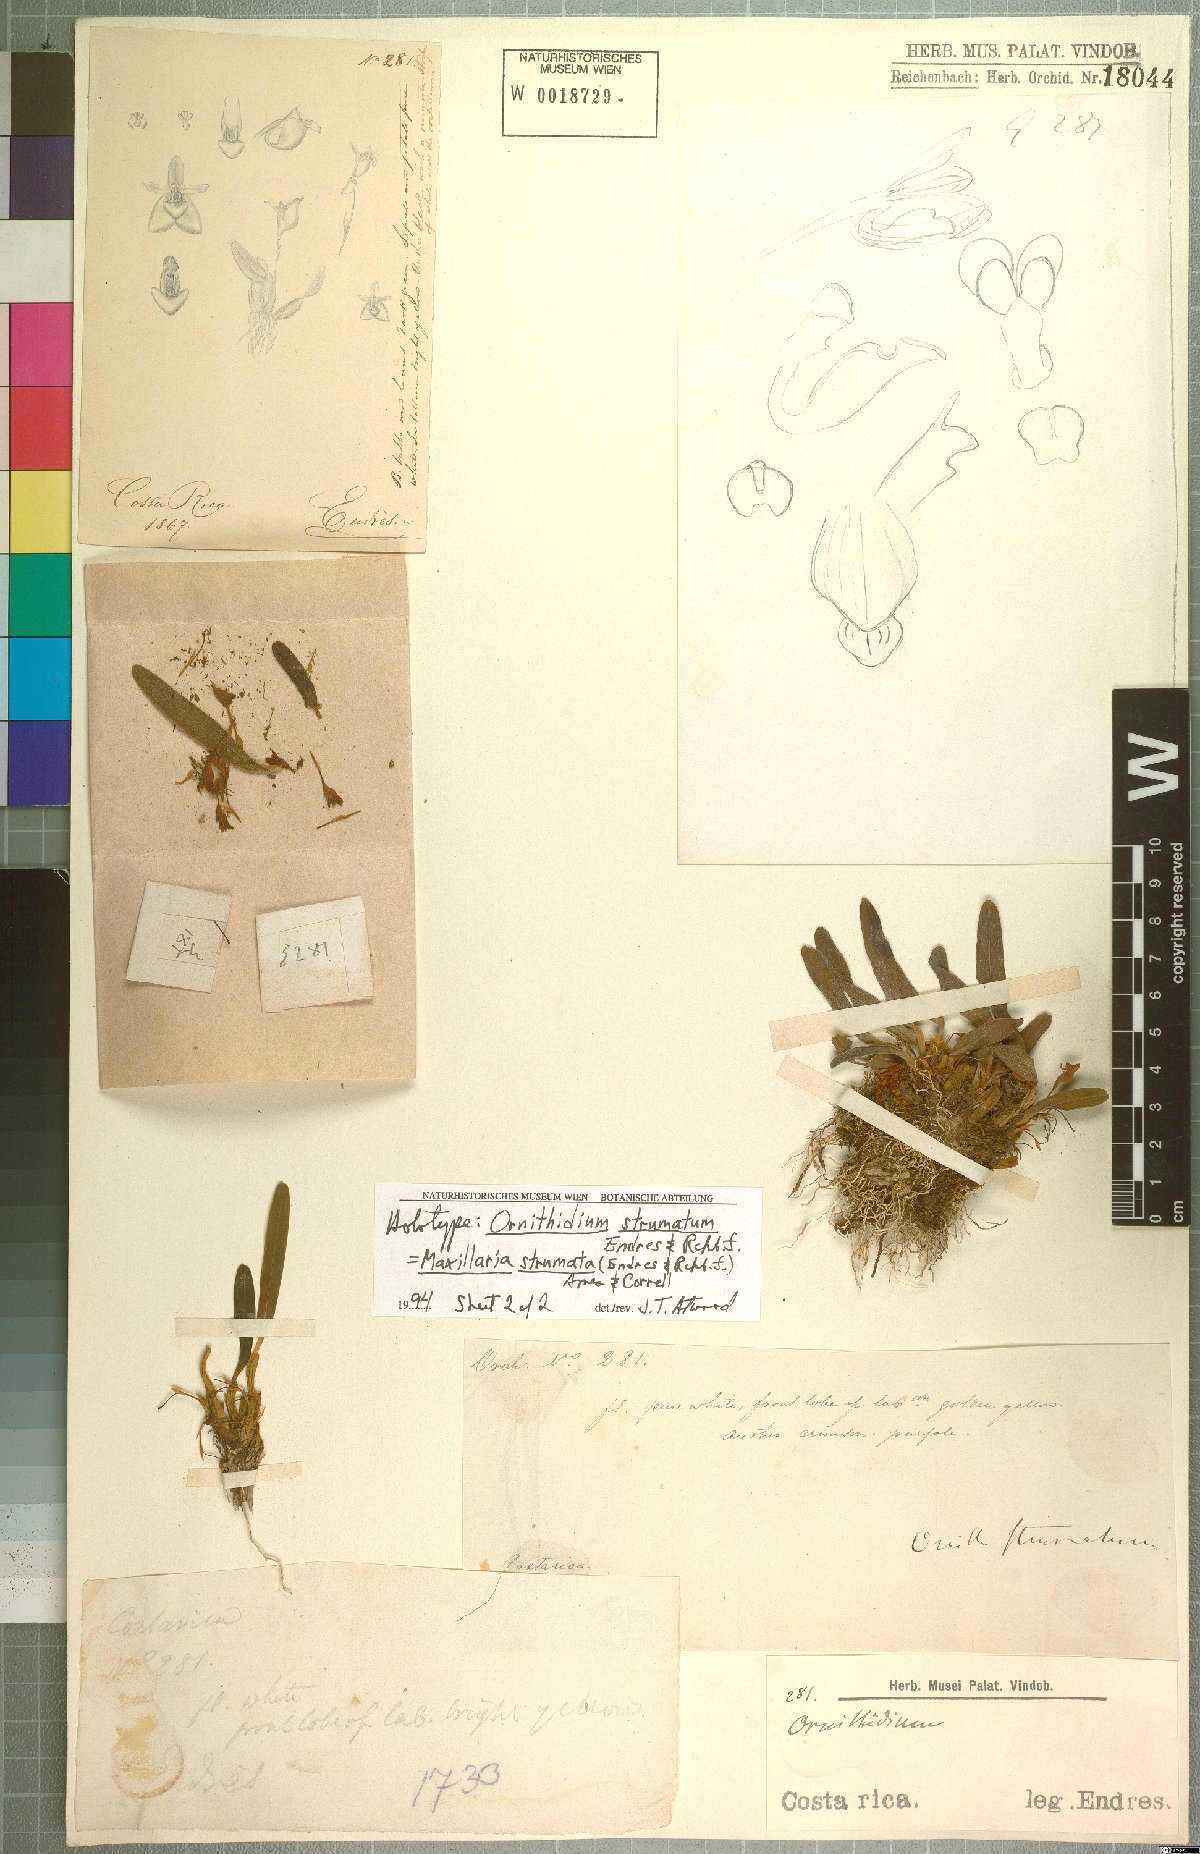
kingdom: Plantae
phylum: Tracheophyta
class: Liliopsida
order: Asparagales
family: Orchidaceae
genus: Maxillaria
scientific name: Maxillaria strumata
